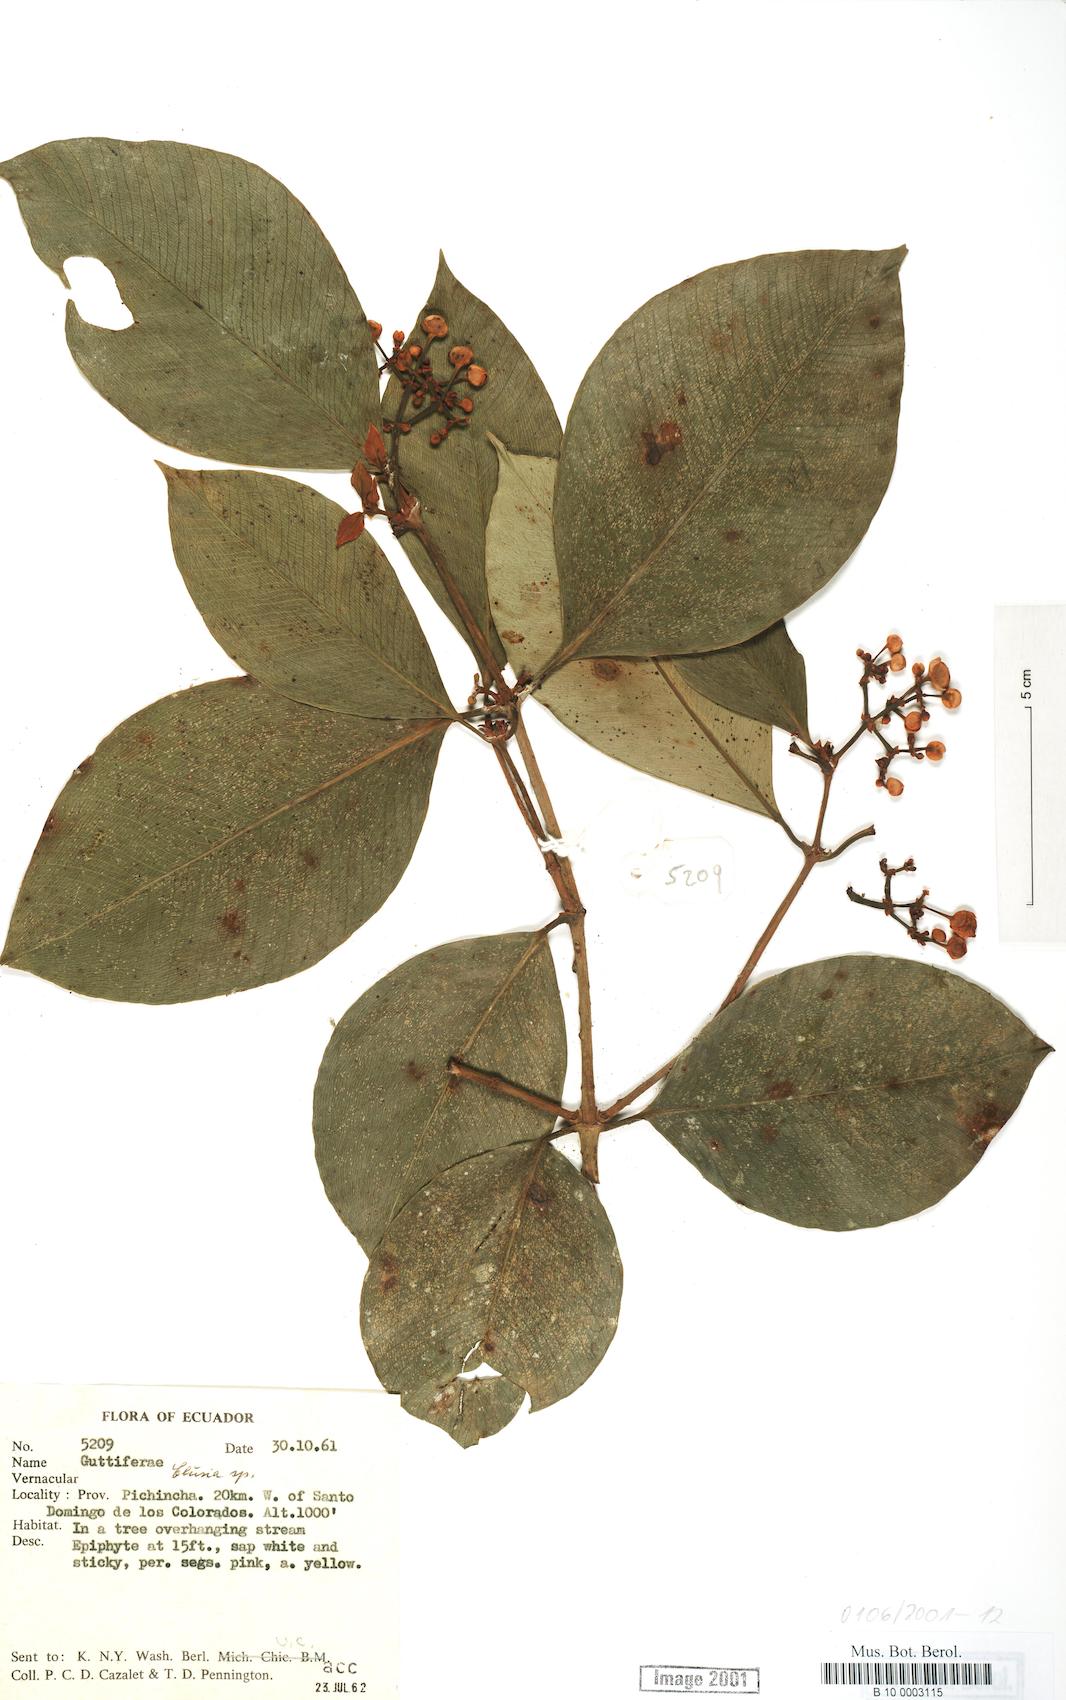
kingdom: Plantae
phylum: Tracheophyta
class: Magnoliopsida
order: Malpighiales
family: Clusiaceae
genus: Clusia
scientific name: Clusia
